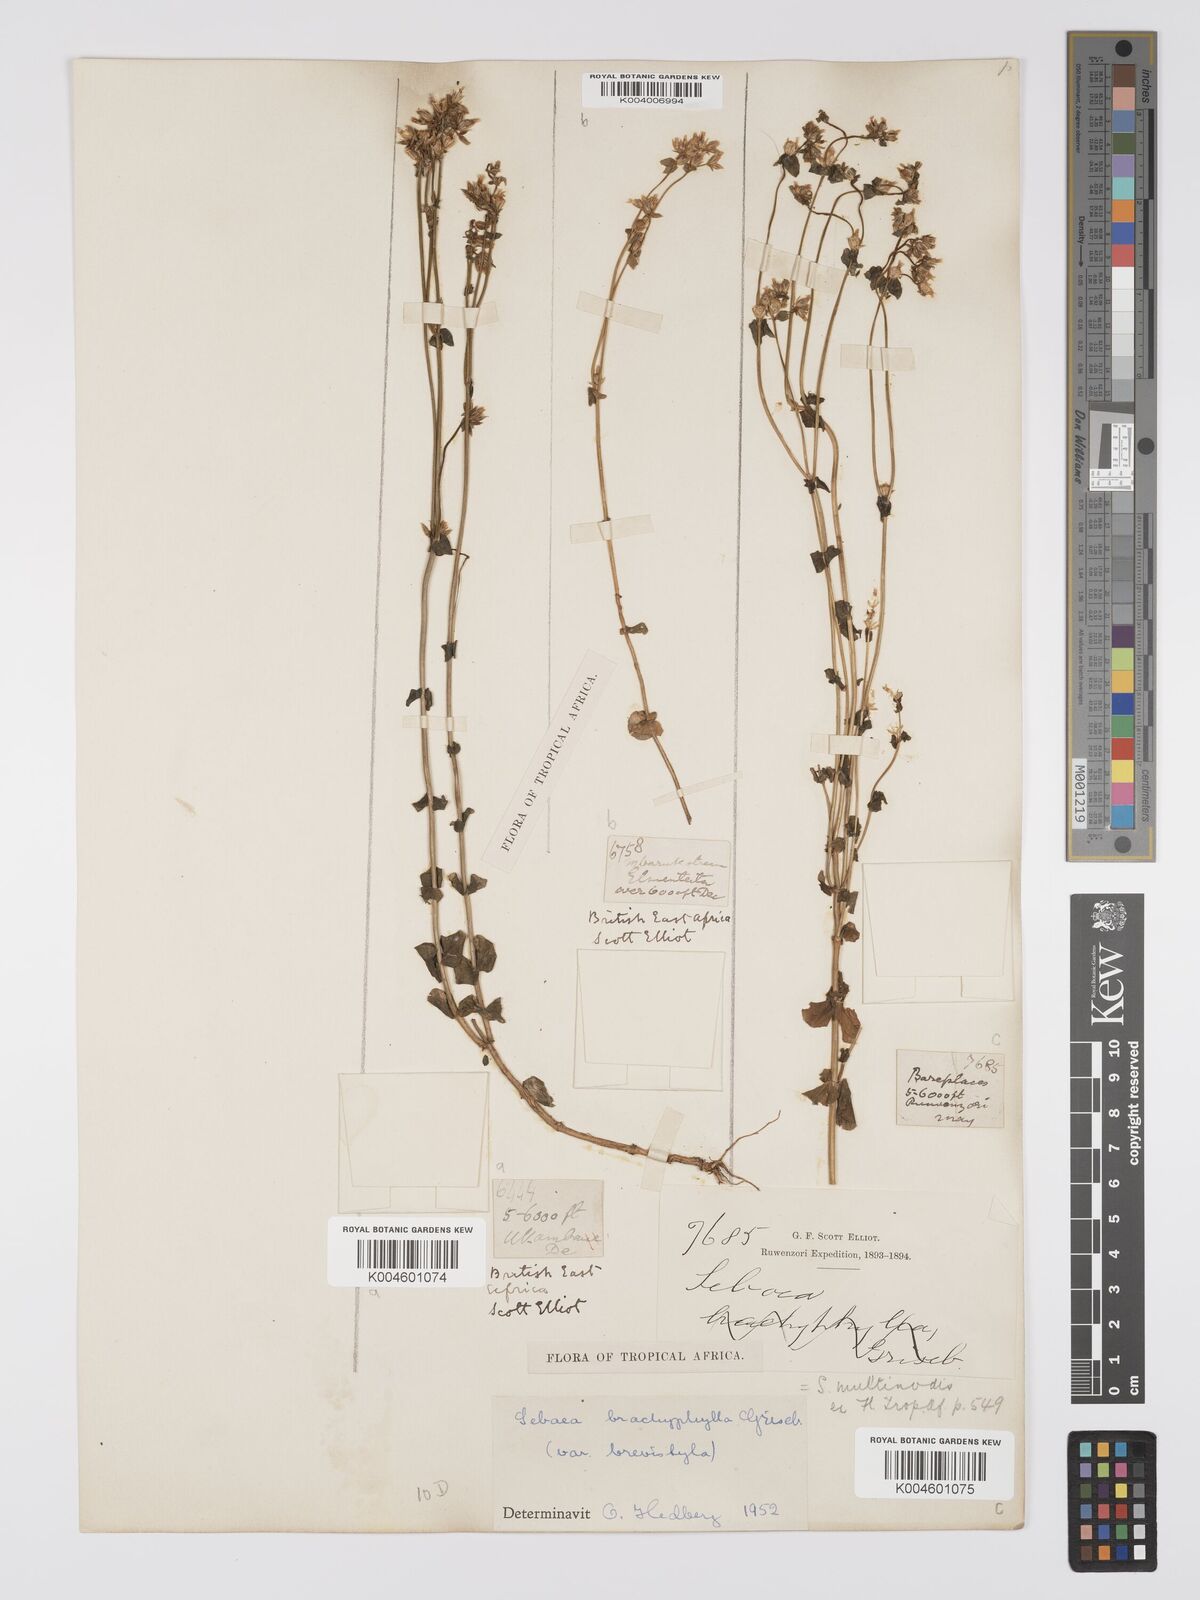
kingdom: Plantae
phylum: Tracheophyta
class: Magnoliopsida
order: Gentianales
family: Gentianaceae
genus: Sebaea
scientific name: Sebaea brachyphylla
